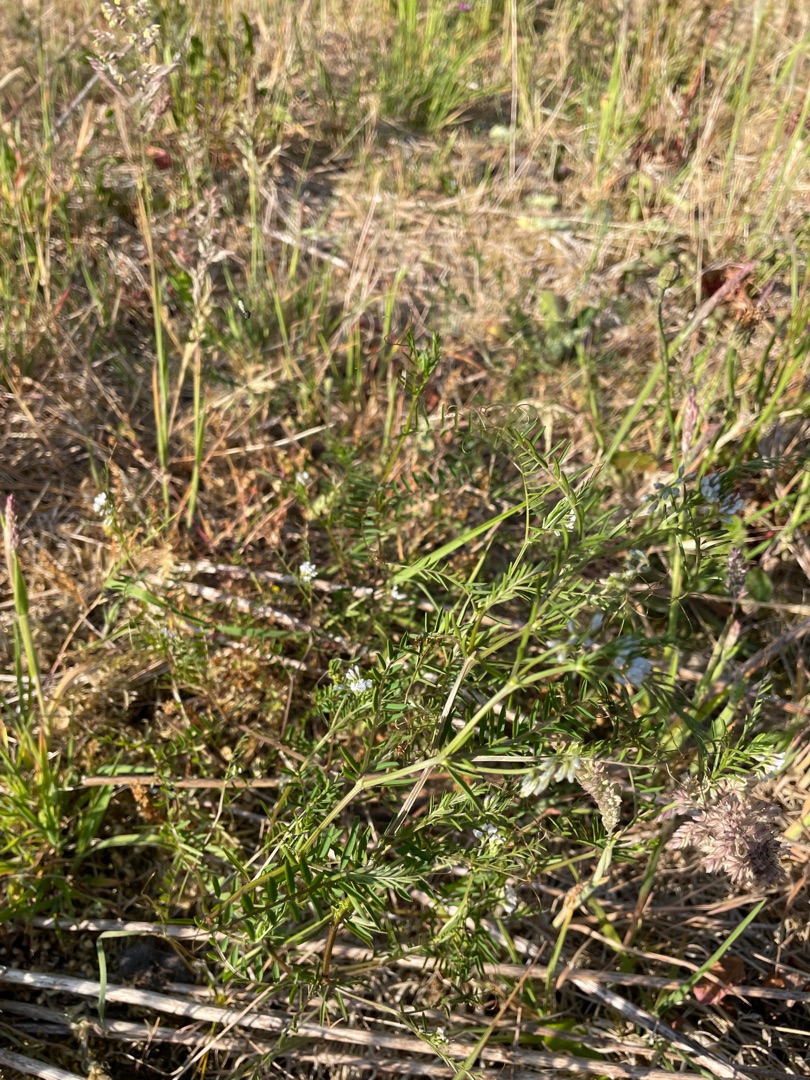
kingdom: Plantae
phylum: Tracheophyta
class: Magnoliopsida
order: Fabales
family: Fabaceae
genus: Vicia
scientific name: Vicia hirsuta
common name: Tofrøet vikke
